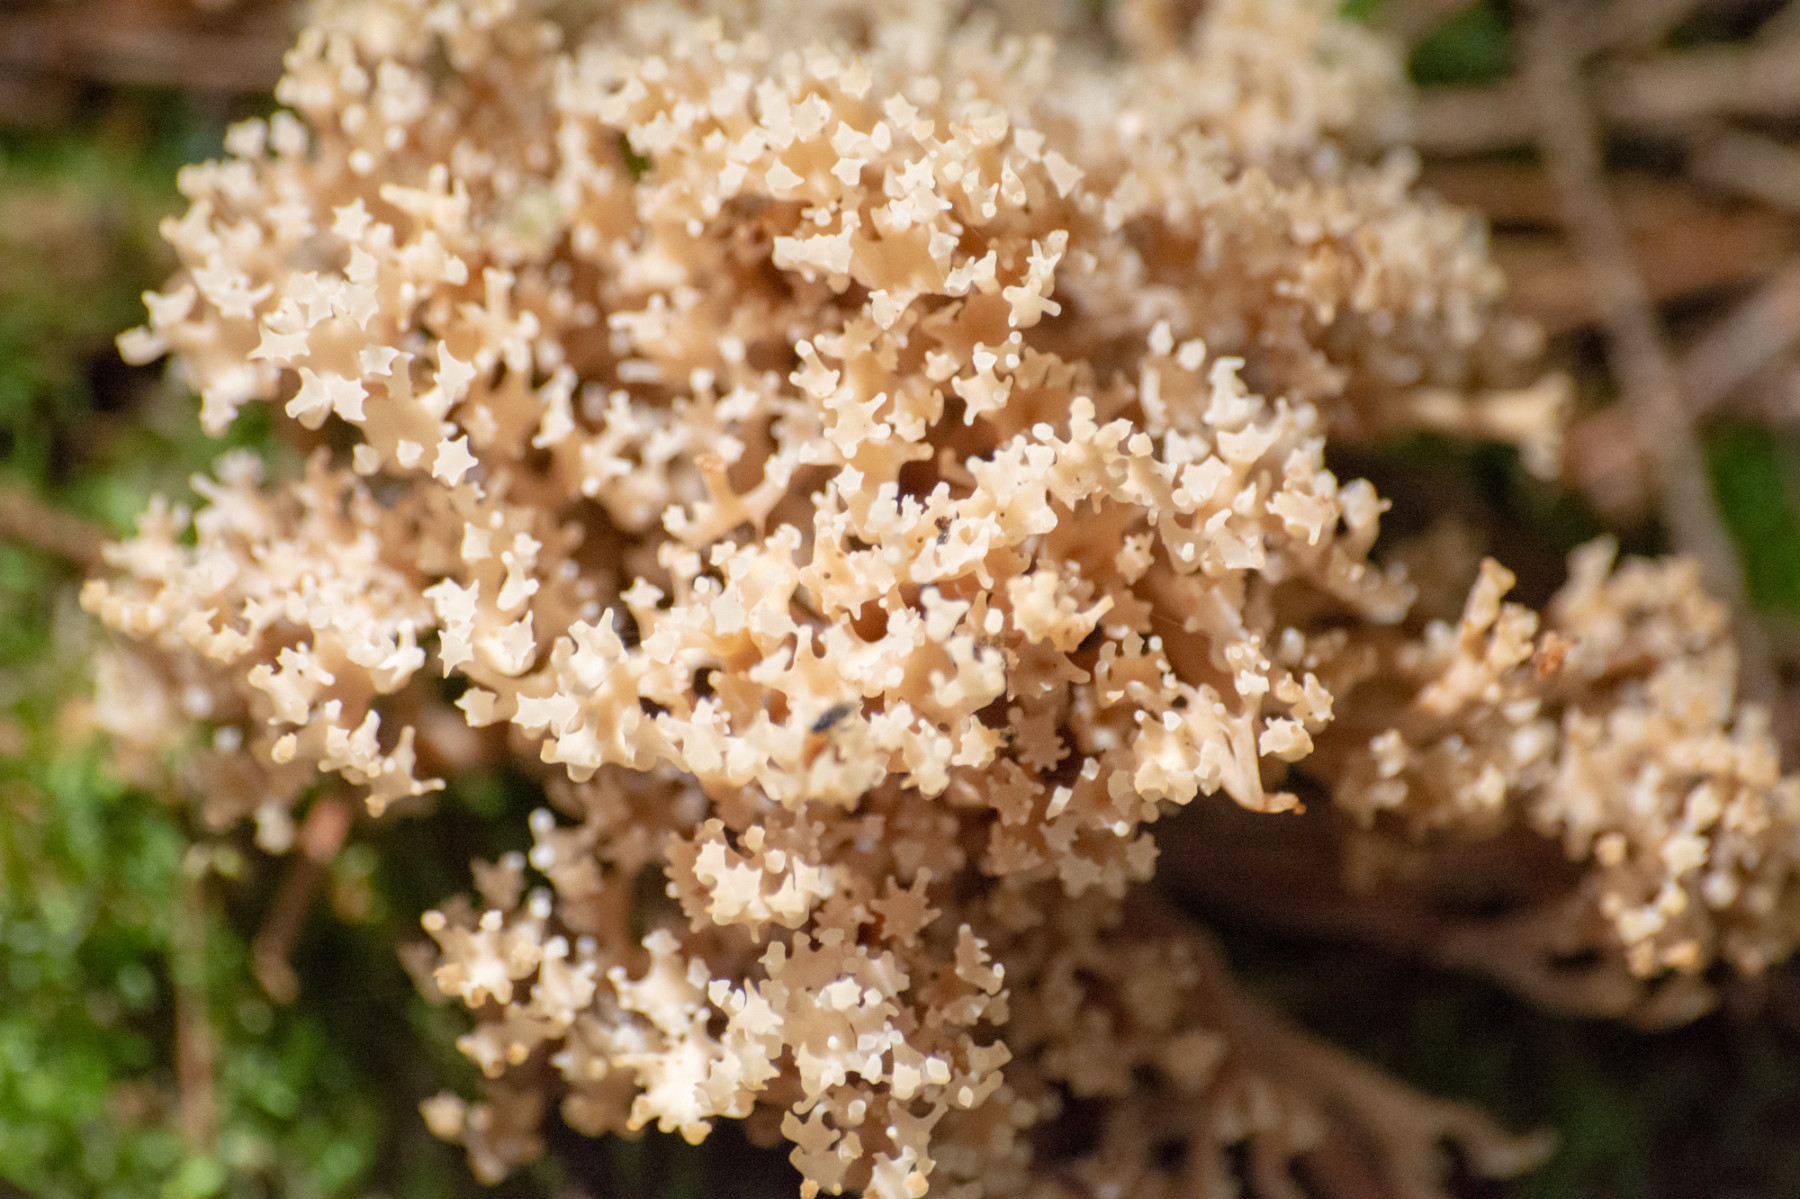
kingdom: Fungi
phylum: Basidiomycota
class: Agaricomycetes
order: Russulales
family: Auriscalpiaceae
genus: Artomyces
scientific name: Artomyces pyxidatus
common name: kandelabersvamp
